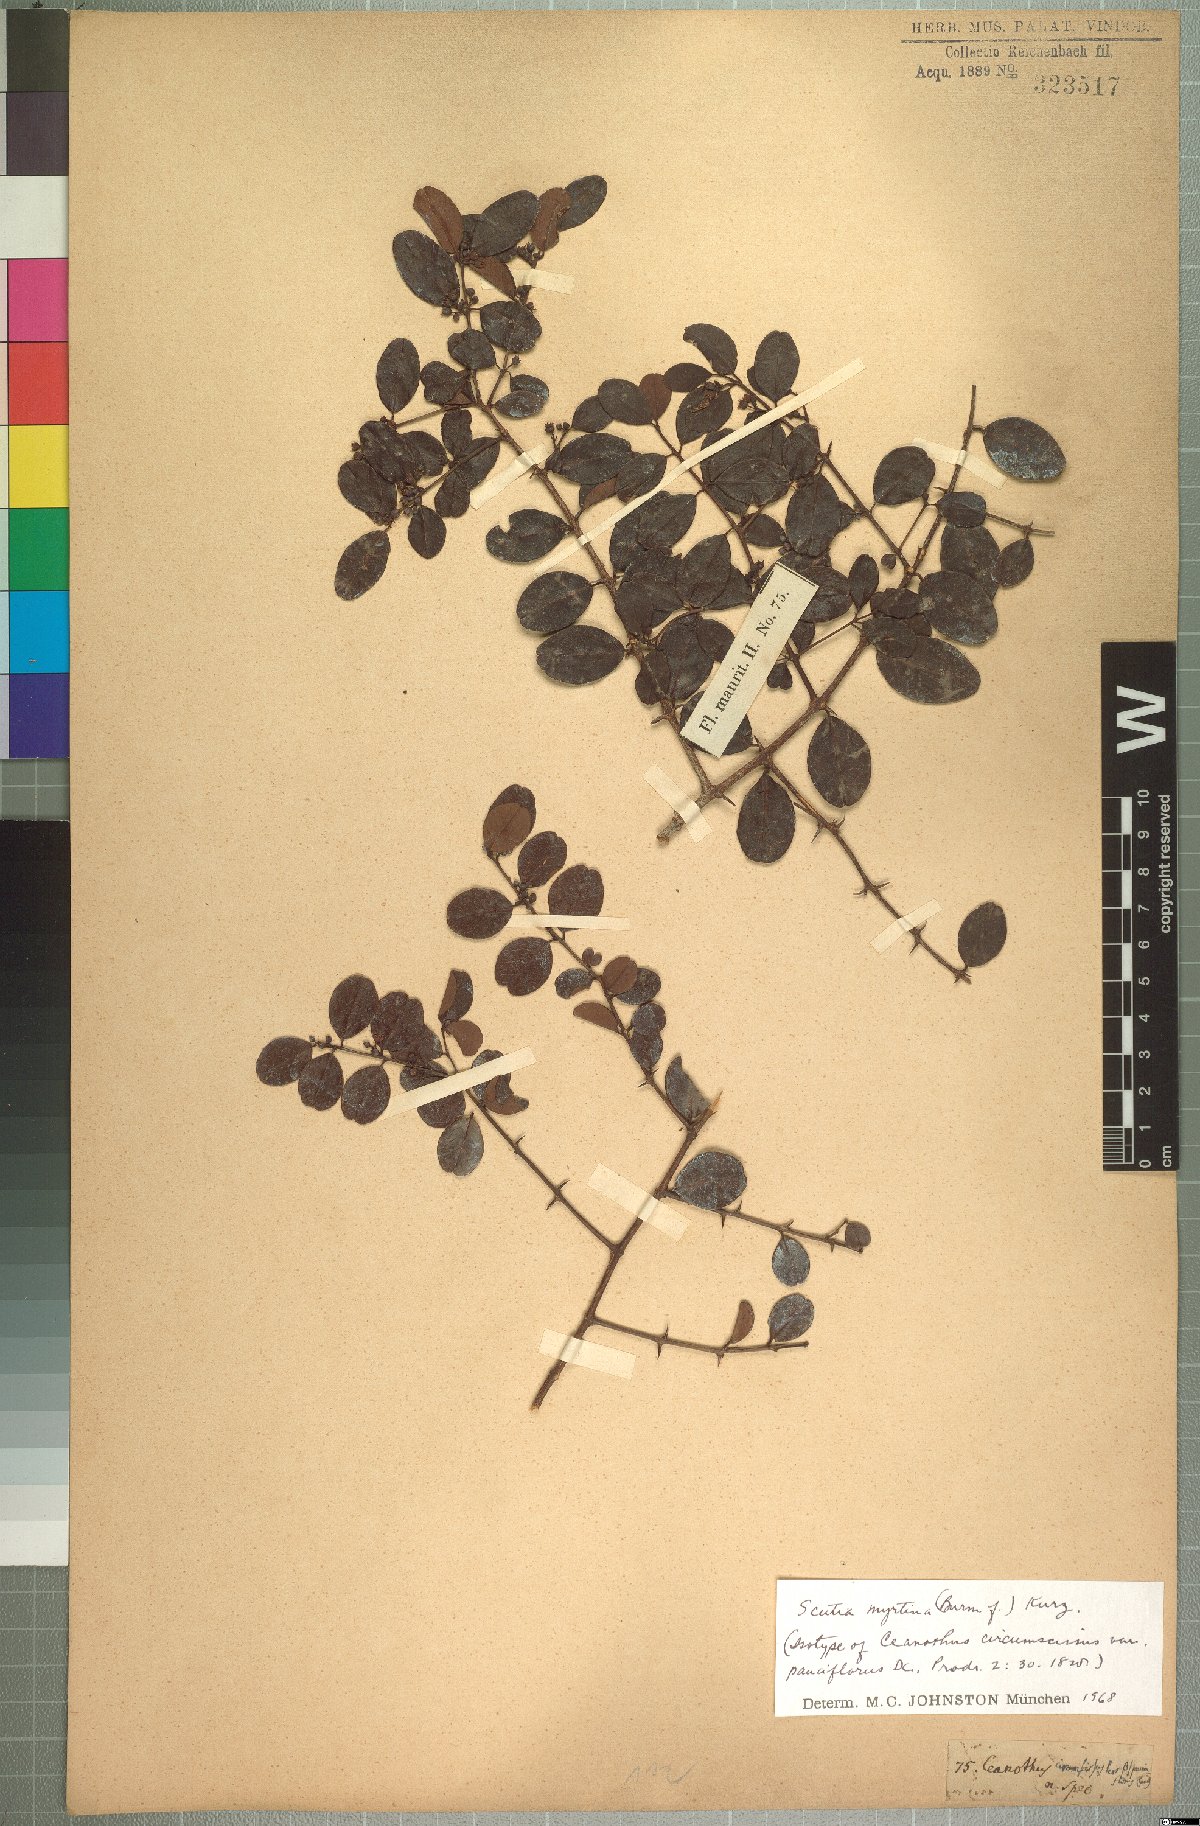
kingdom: Plantae
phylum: Tracheophyta
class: Magnoliopsida
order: Rosales
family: Rhamnaceae
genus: Scutia
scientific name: Scutia myrtina
